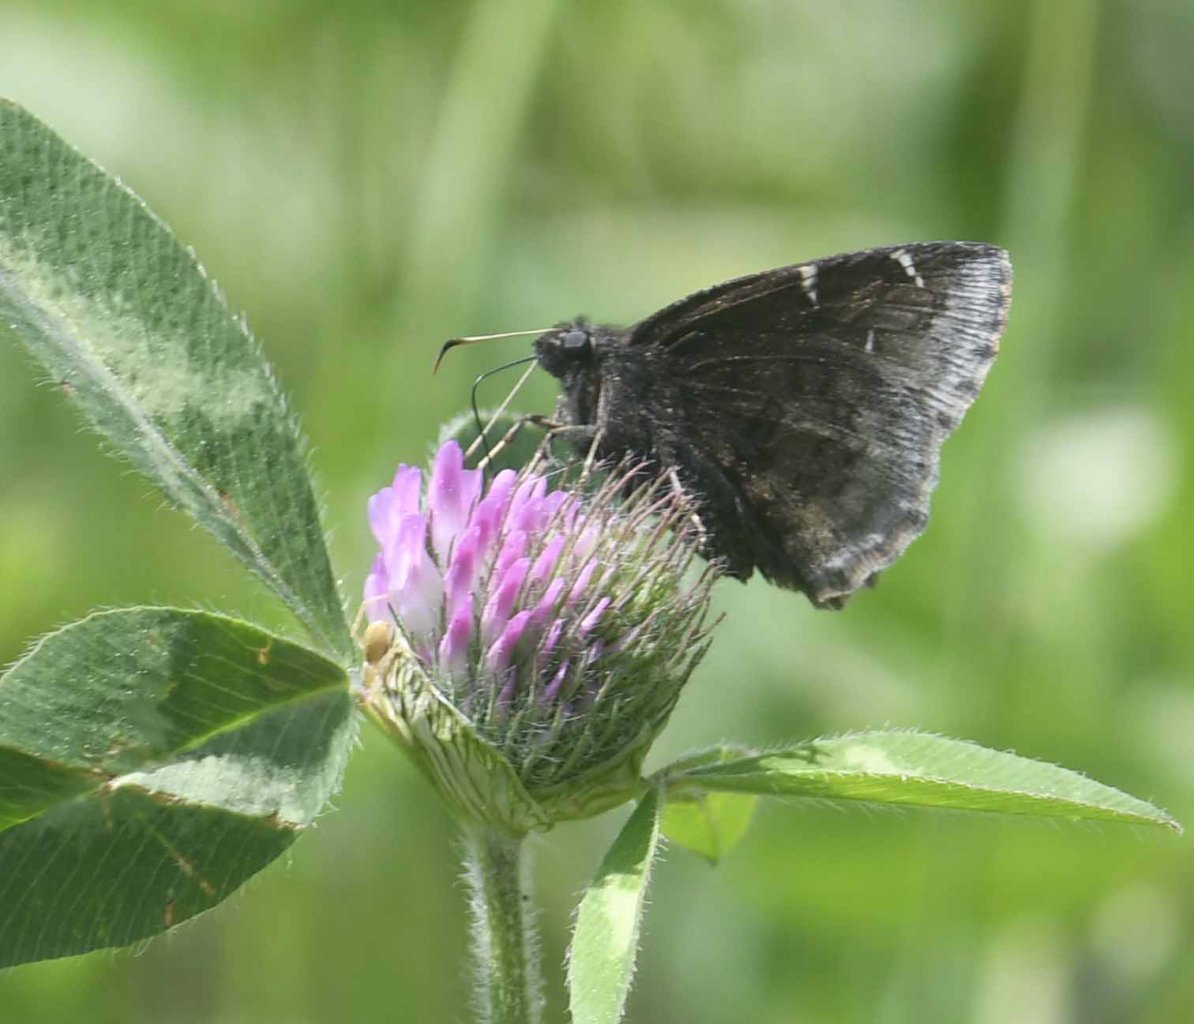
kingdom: Animalia
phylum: Arthropoda
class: Insecta
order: Lepidoptera
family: Hesperiidae
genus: Autochton
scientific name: Autochton
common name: Northern Cloudywing
